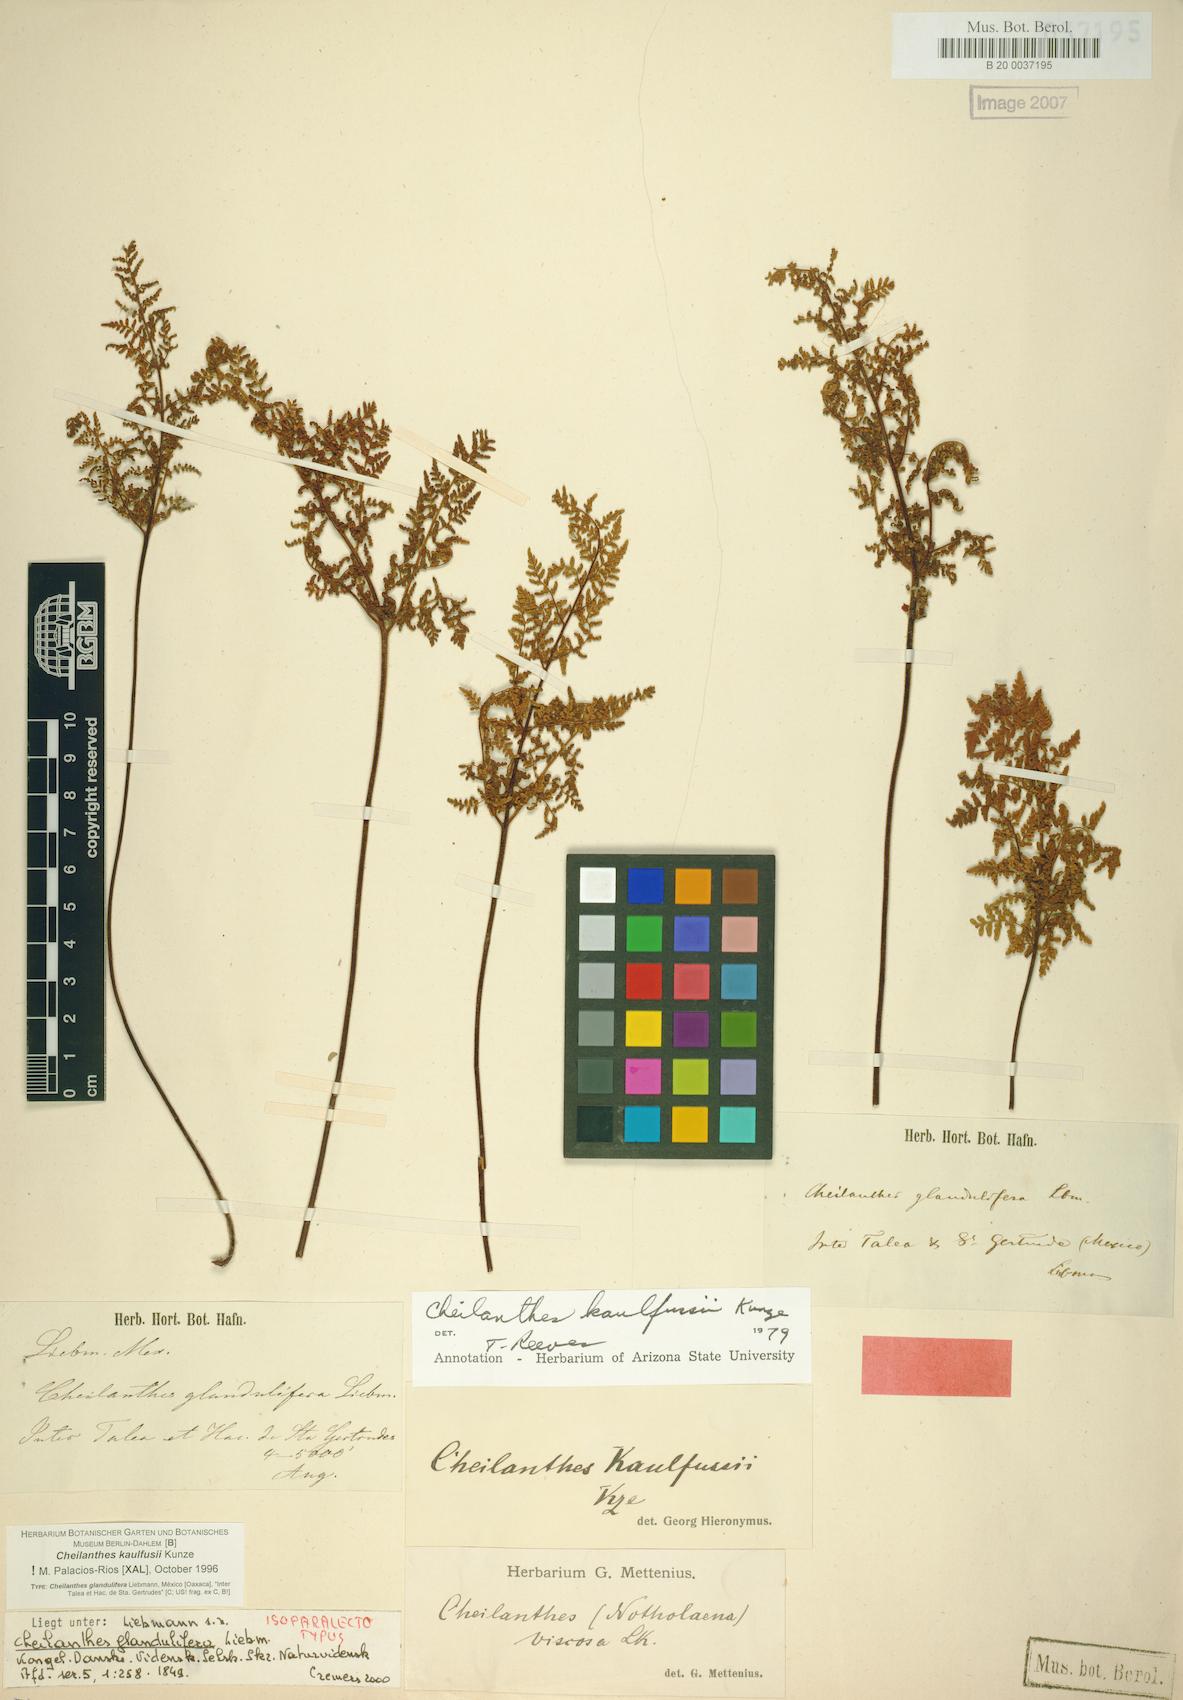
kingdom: Plantae
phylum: Tracheophyta
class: Polypodiopsida
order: Polypodiales
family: Pteridaceae
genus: Gaga
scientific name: Gaga kaulfussii
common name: Glandular lip fern
